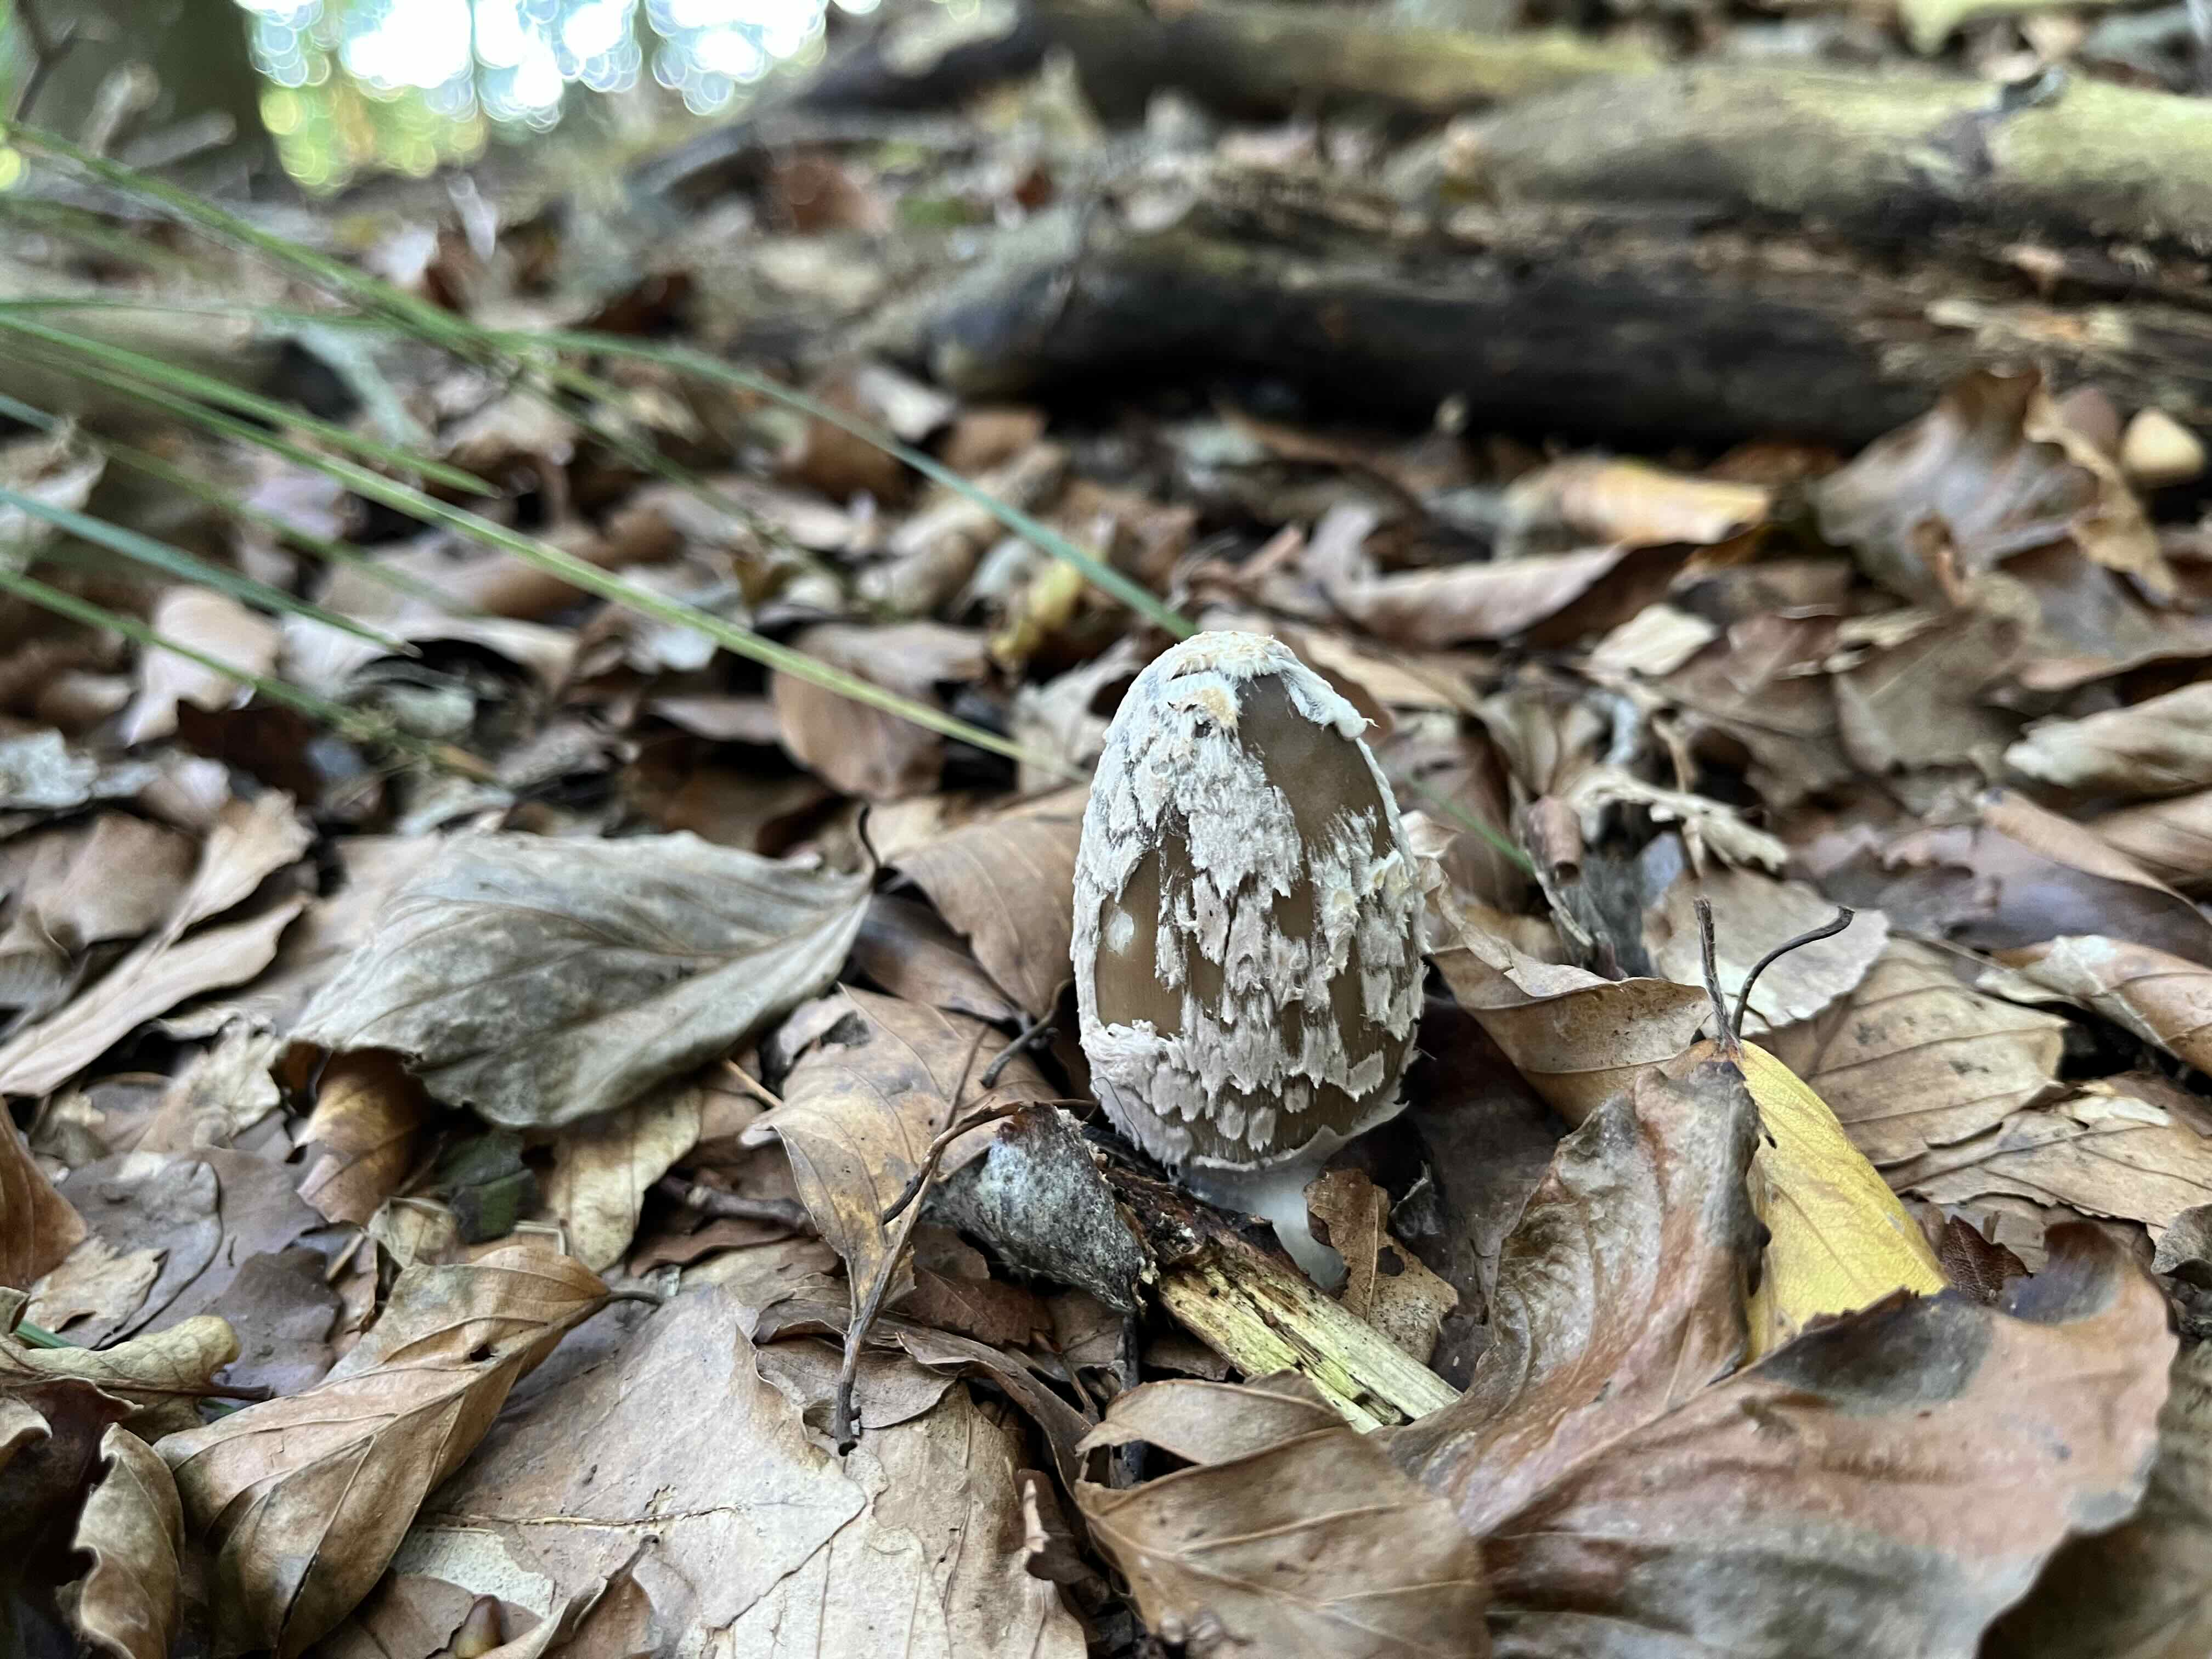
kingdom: Fungi
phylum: Basidiomycota
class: Agaricomycetes
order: Agaricales
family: Psathyrellaceae
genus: Coprinopsis
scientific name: Coprinopsis picacea
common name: skade-blækhat
